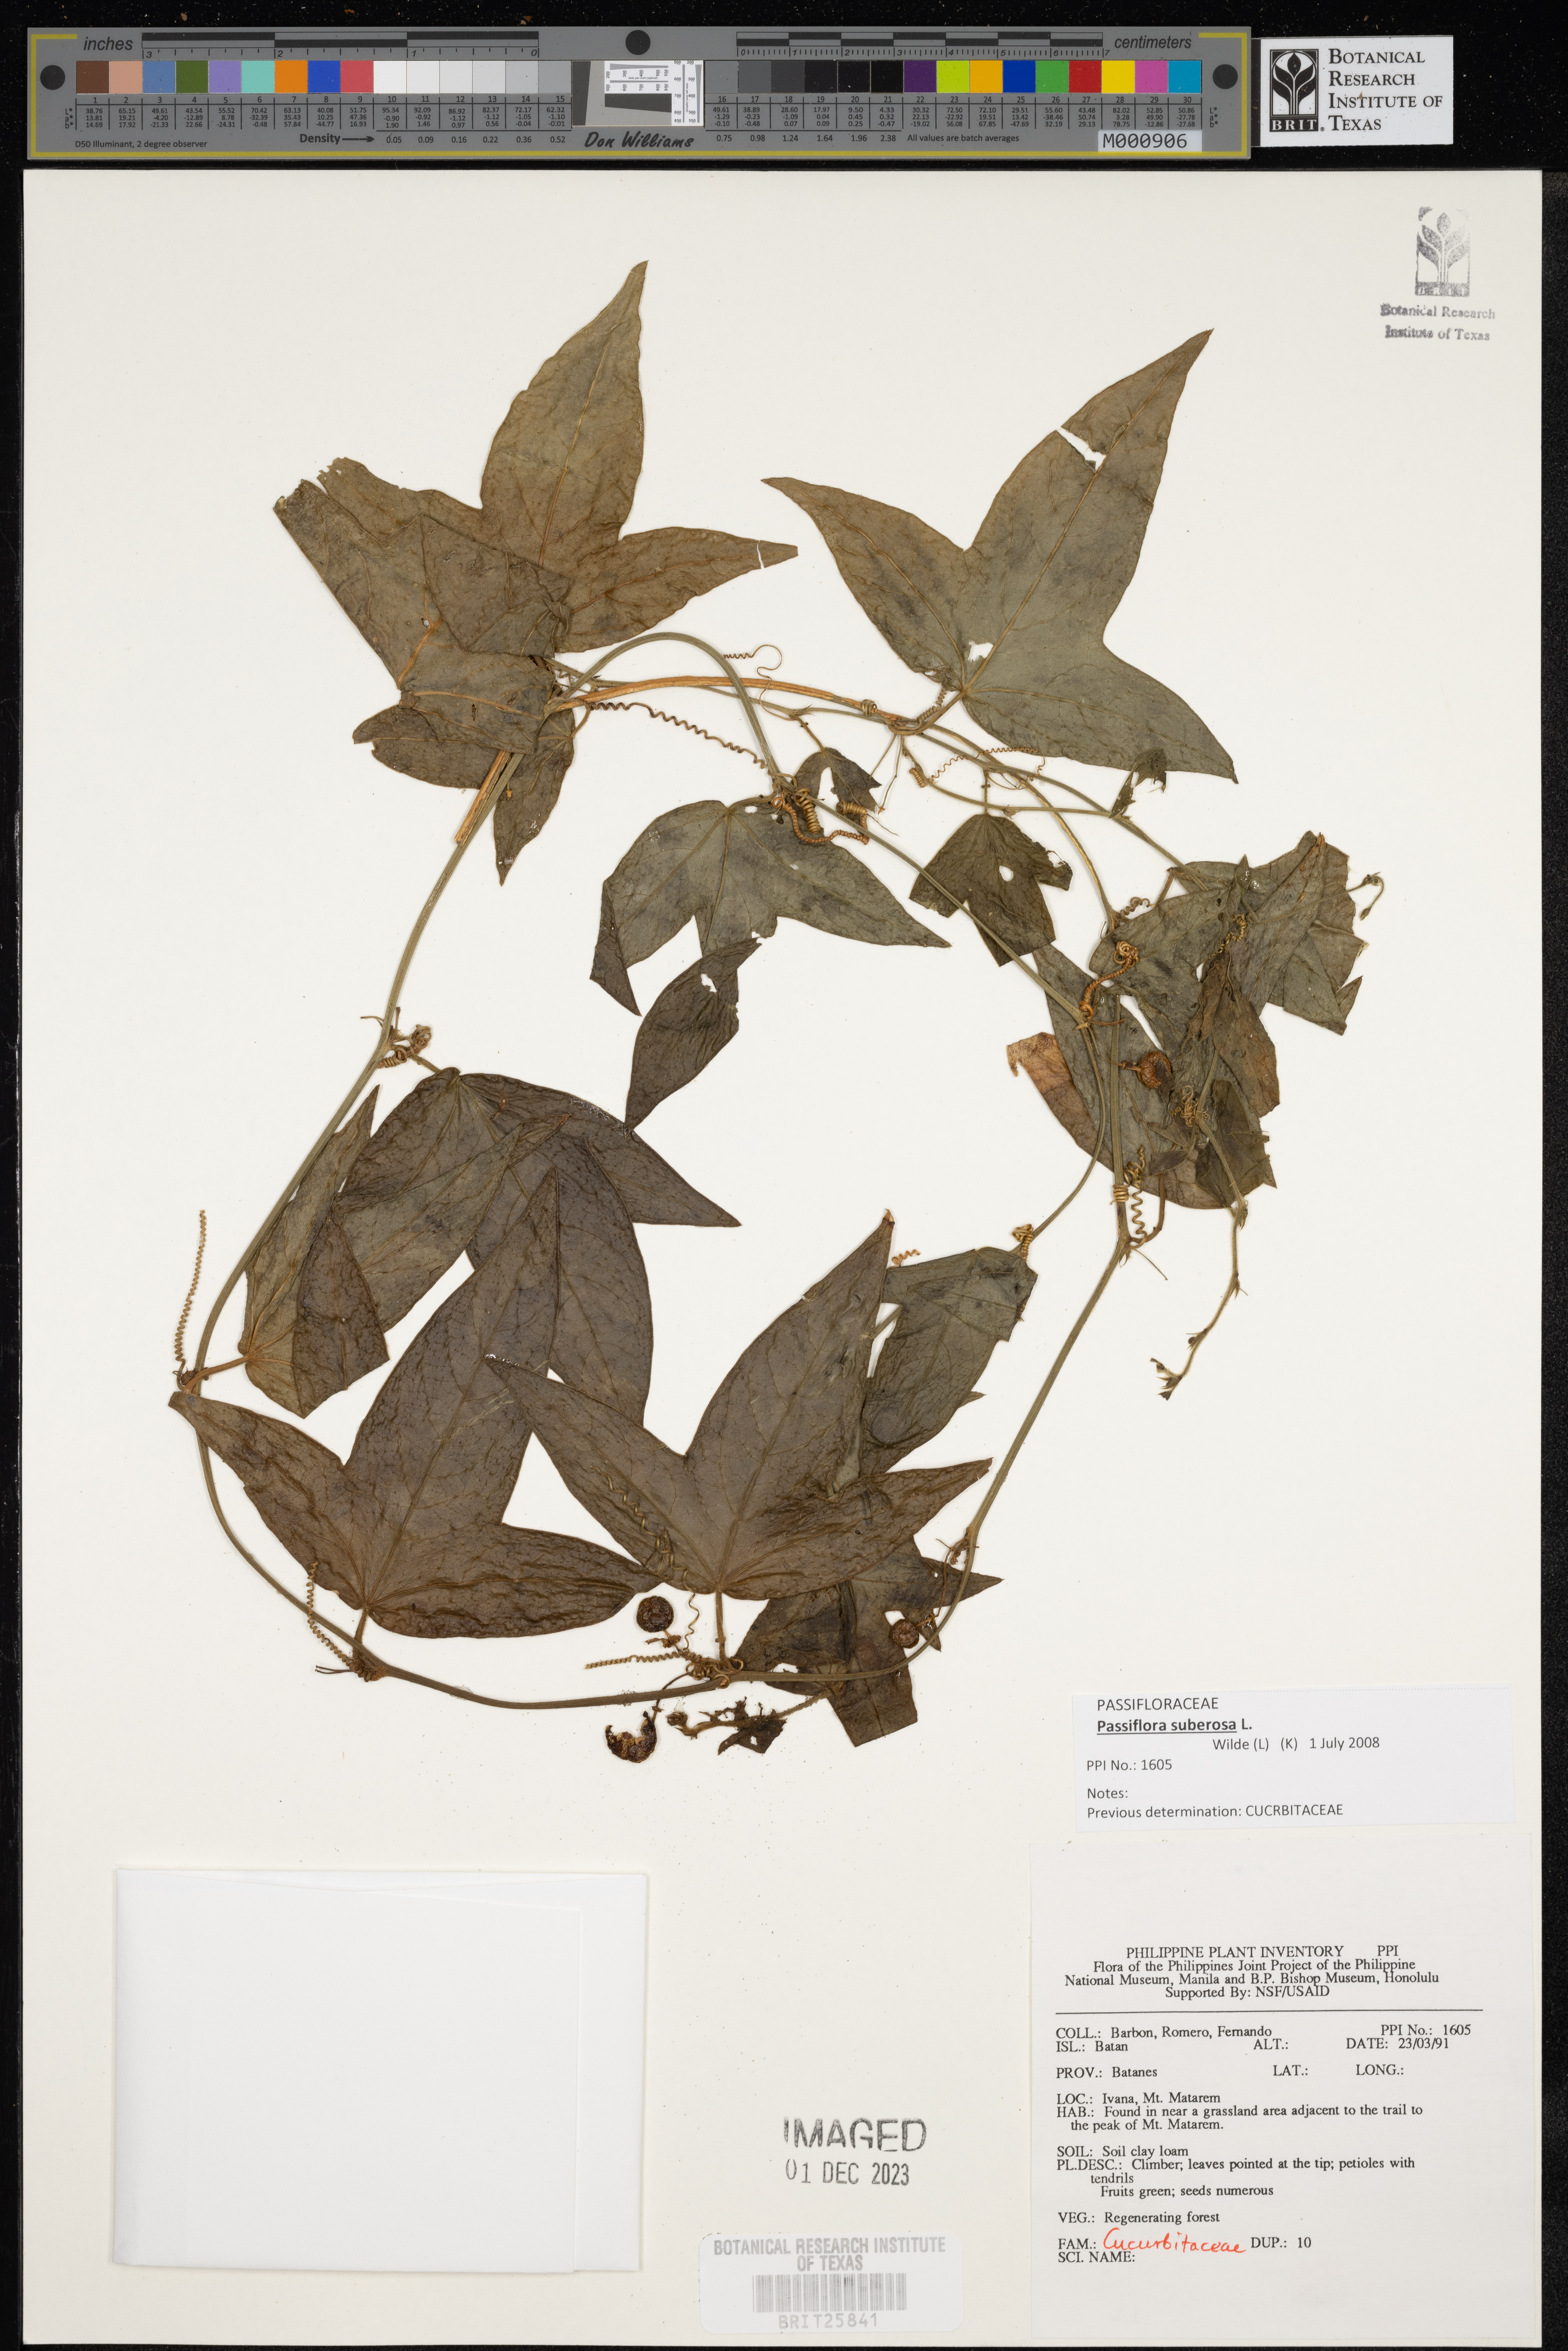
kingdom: Plantae
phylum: Tracheophyta
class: Magnoliopsida
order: Cucurbitales
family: Cucurbitaceae
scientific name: Cucurbitaceae
